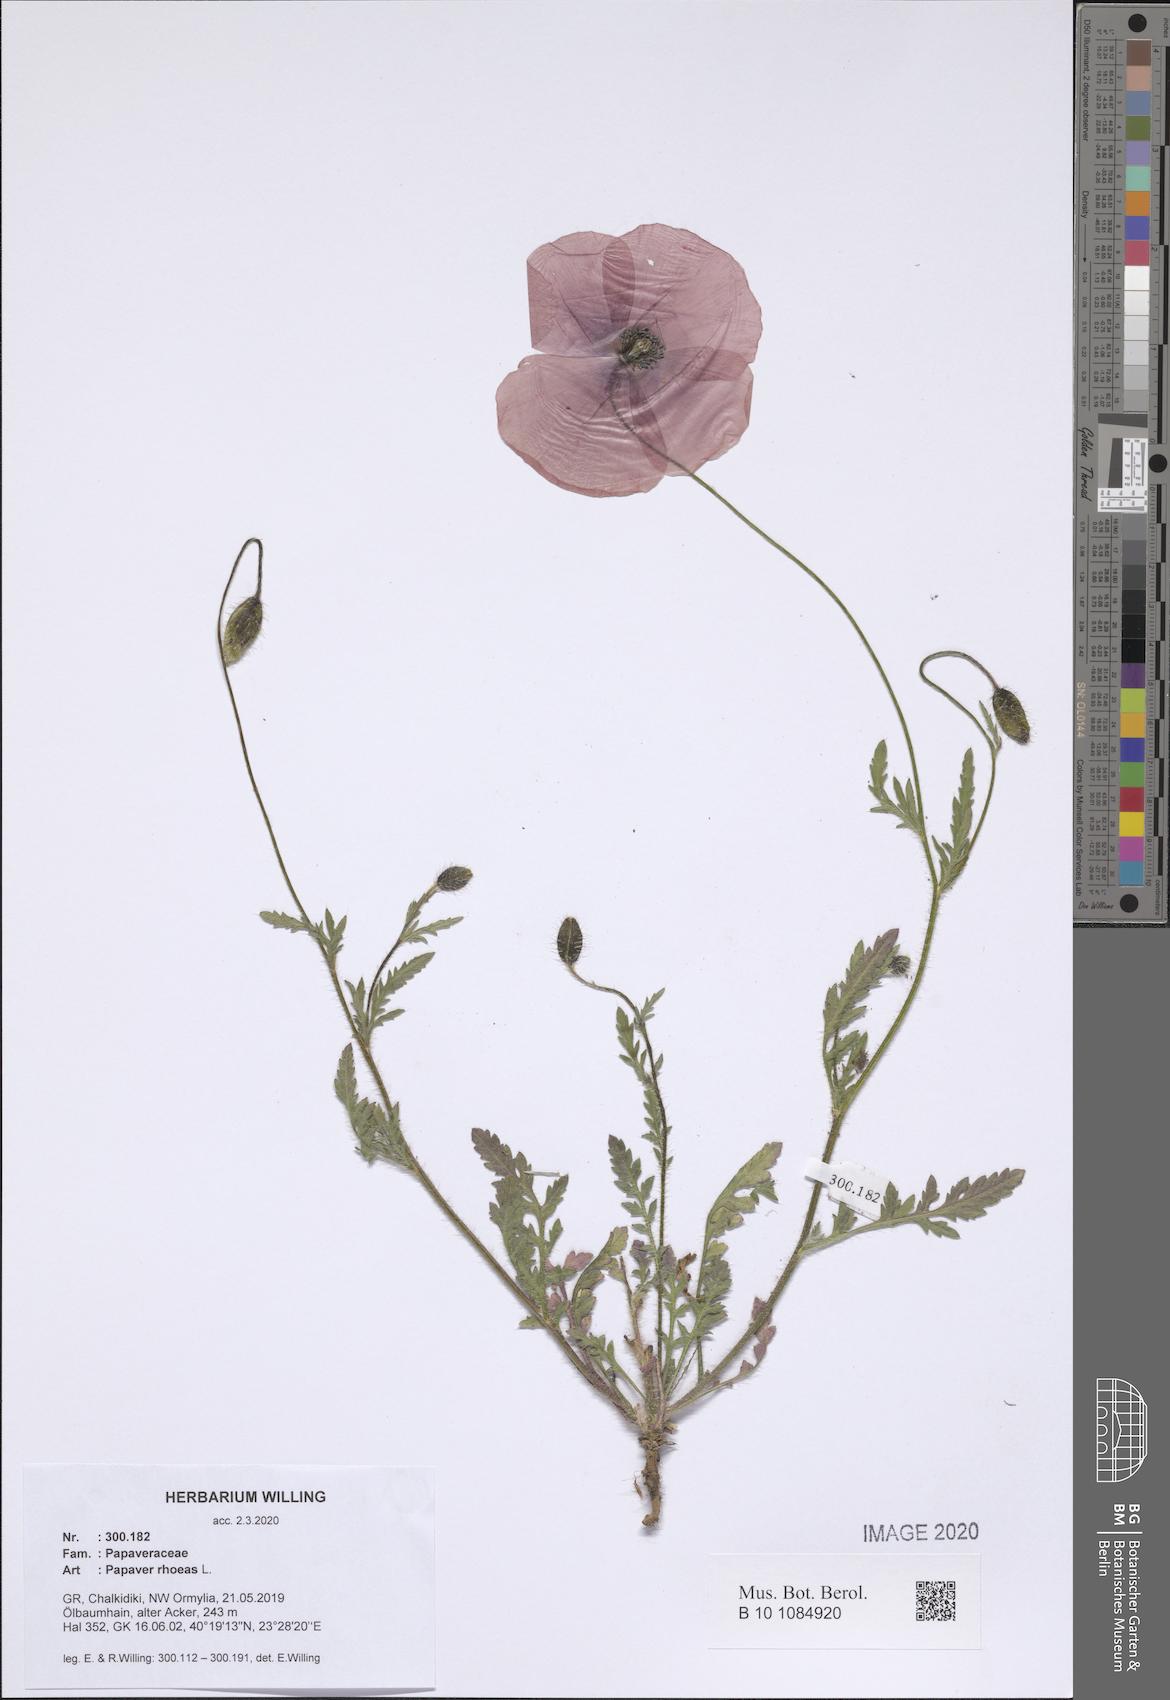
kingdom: Plantae
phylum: Tracheophyta
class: Magnoliopsida
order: Ranunculales
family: Papaveraceae
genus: Papaver
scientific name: Papaver rhoeas
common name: Corn poppy
